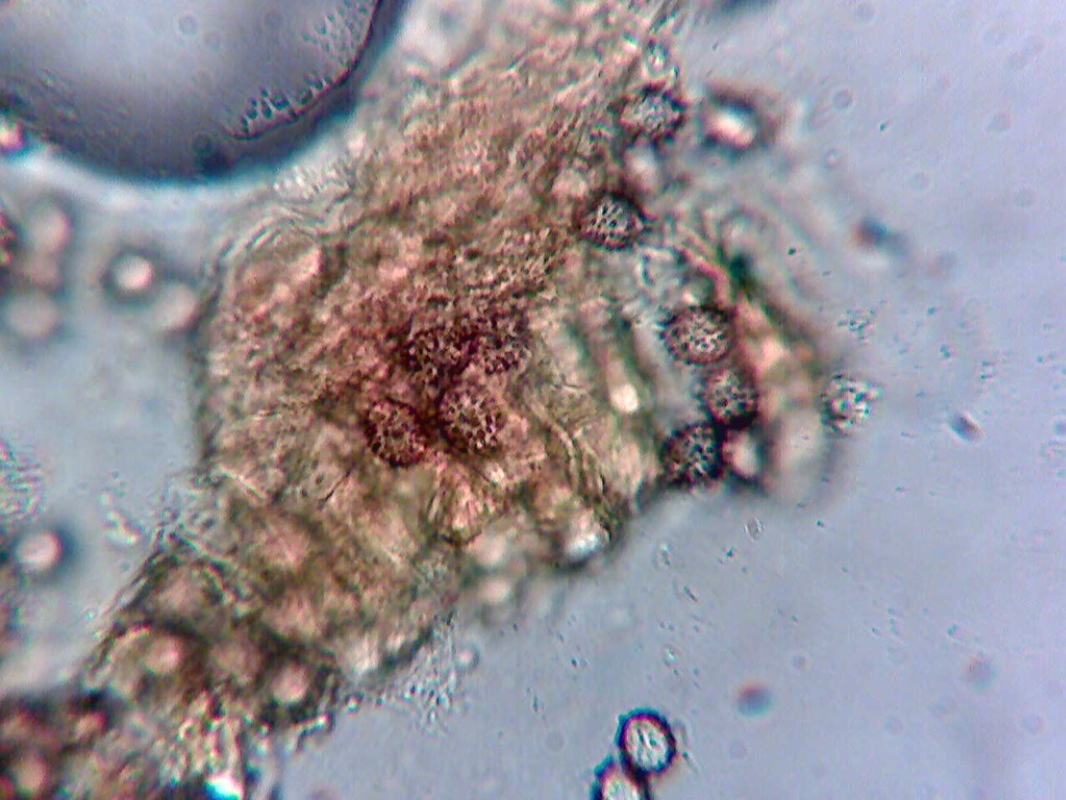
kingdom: Fungi
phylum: Basidiomycota
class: Agaricomycetes
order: Russulales
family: Russulaceae
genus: Russula
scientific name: Russula pelargonia
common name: pelargonie-skørhat
